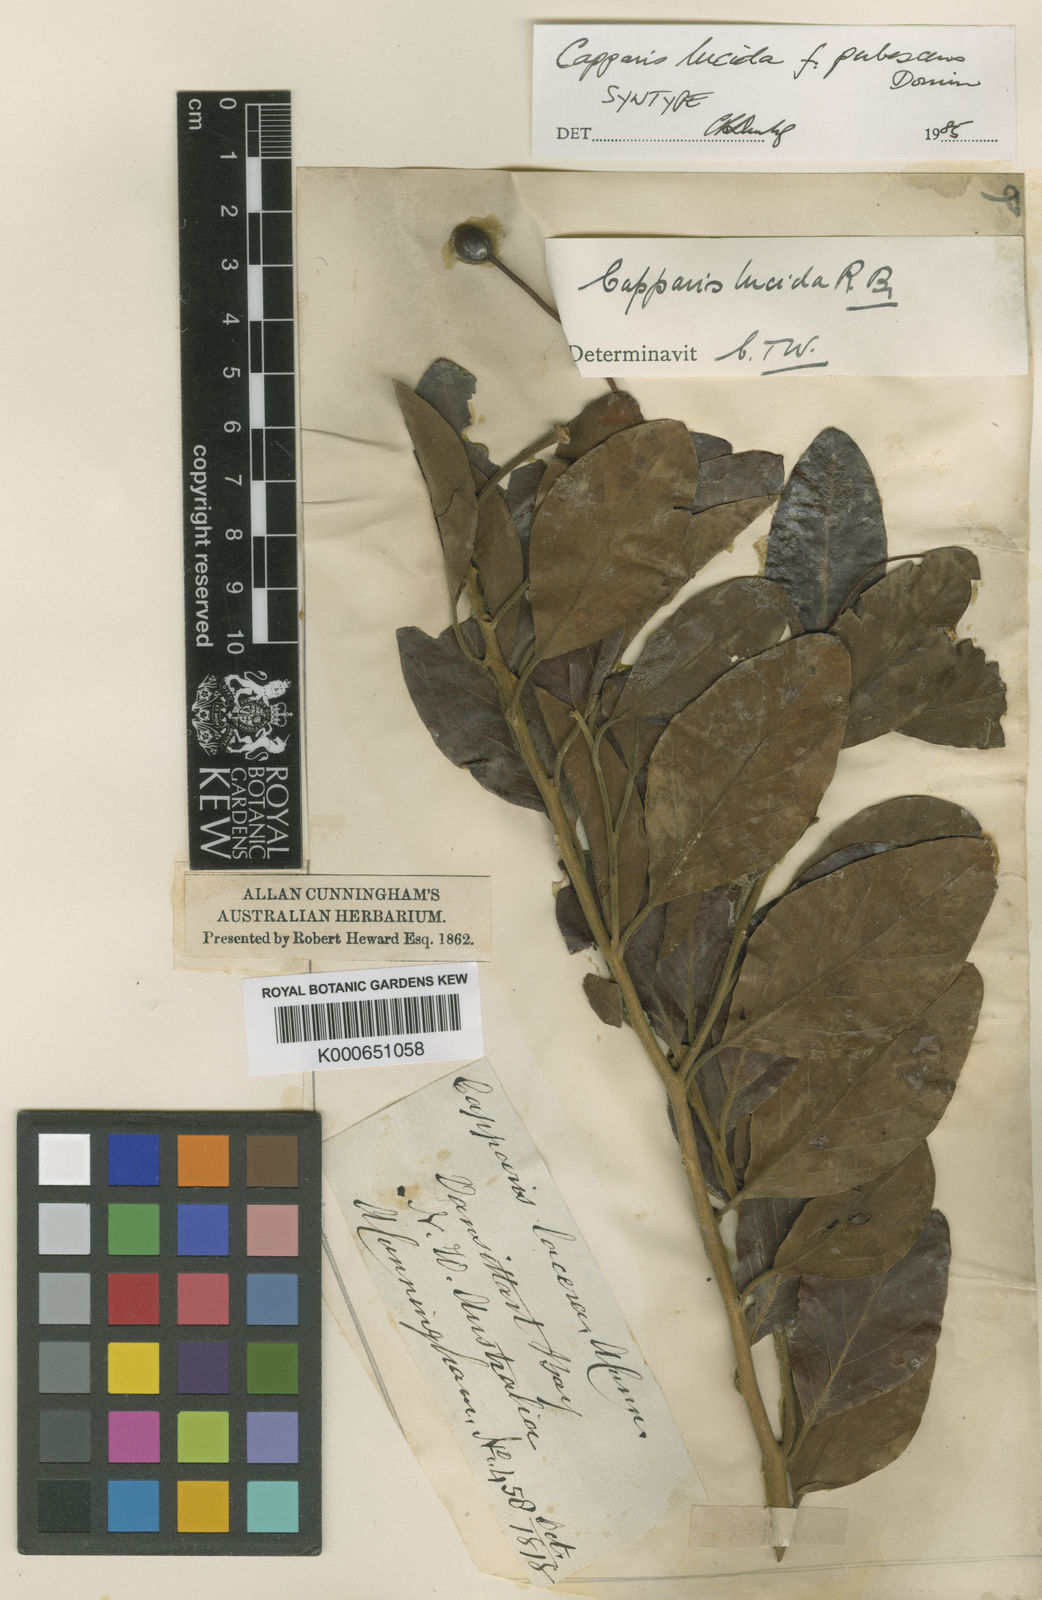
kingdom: Plantae
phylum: Tracheophyta
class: Magnoliopsida
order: Brassicales
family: Capparaceae
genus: Capparis
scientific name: Capparis
